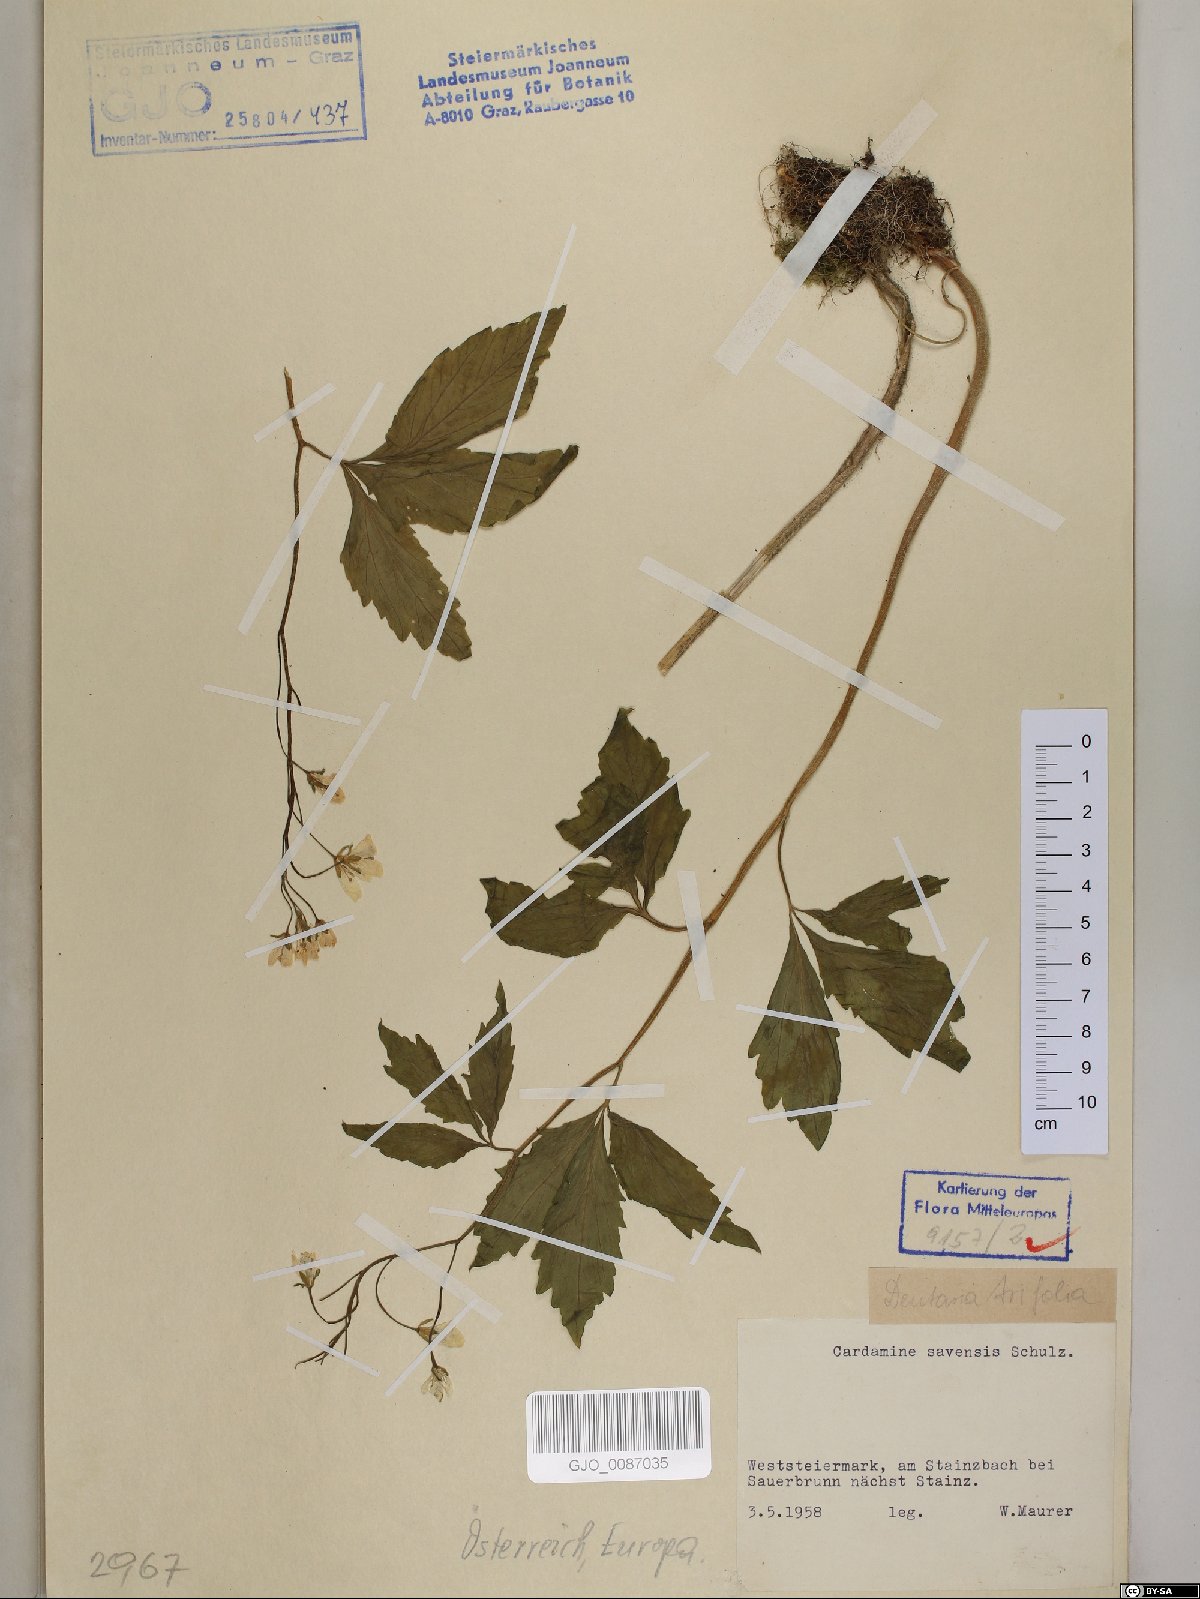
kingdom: Plantae
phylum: Tracheophyta
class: Magnoliopsida
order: Brassicales
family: Brassicaceae
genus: Cardamine
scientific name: Cardamine waldsteinii
